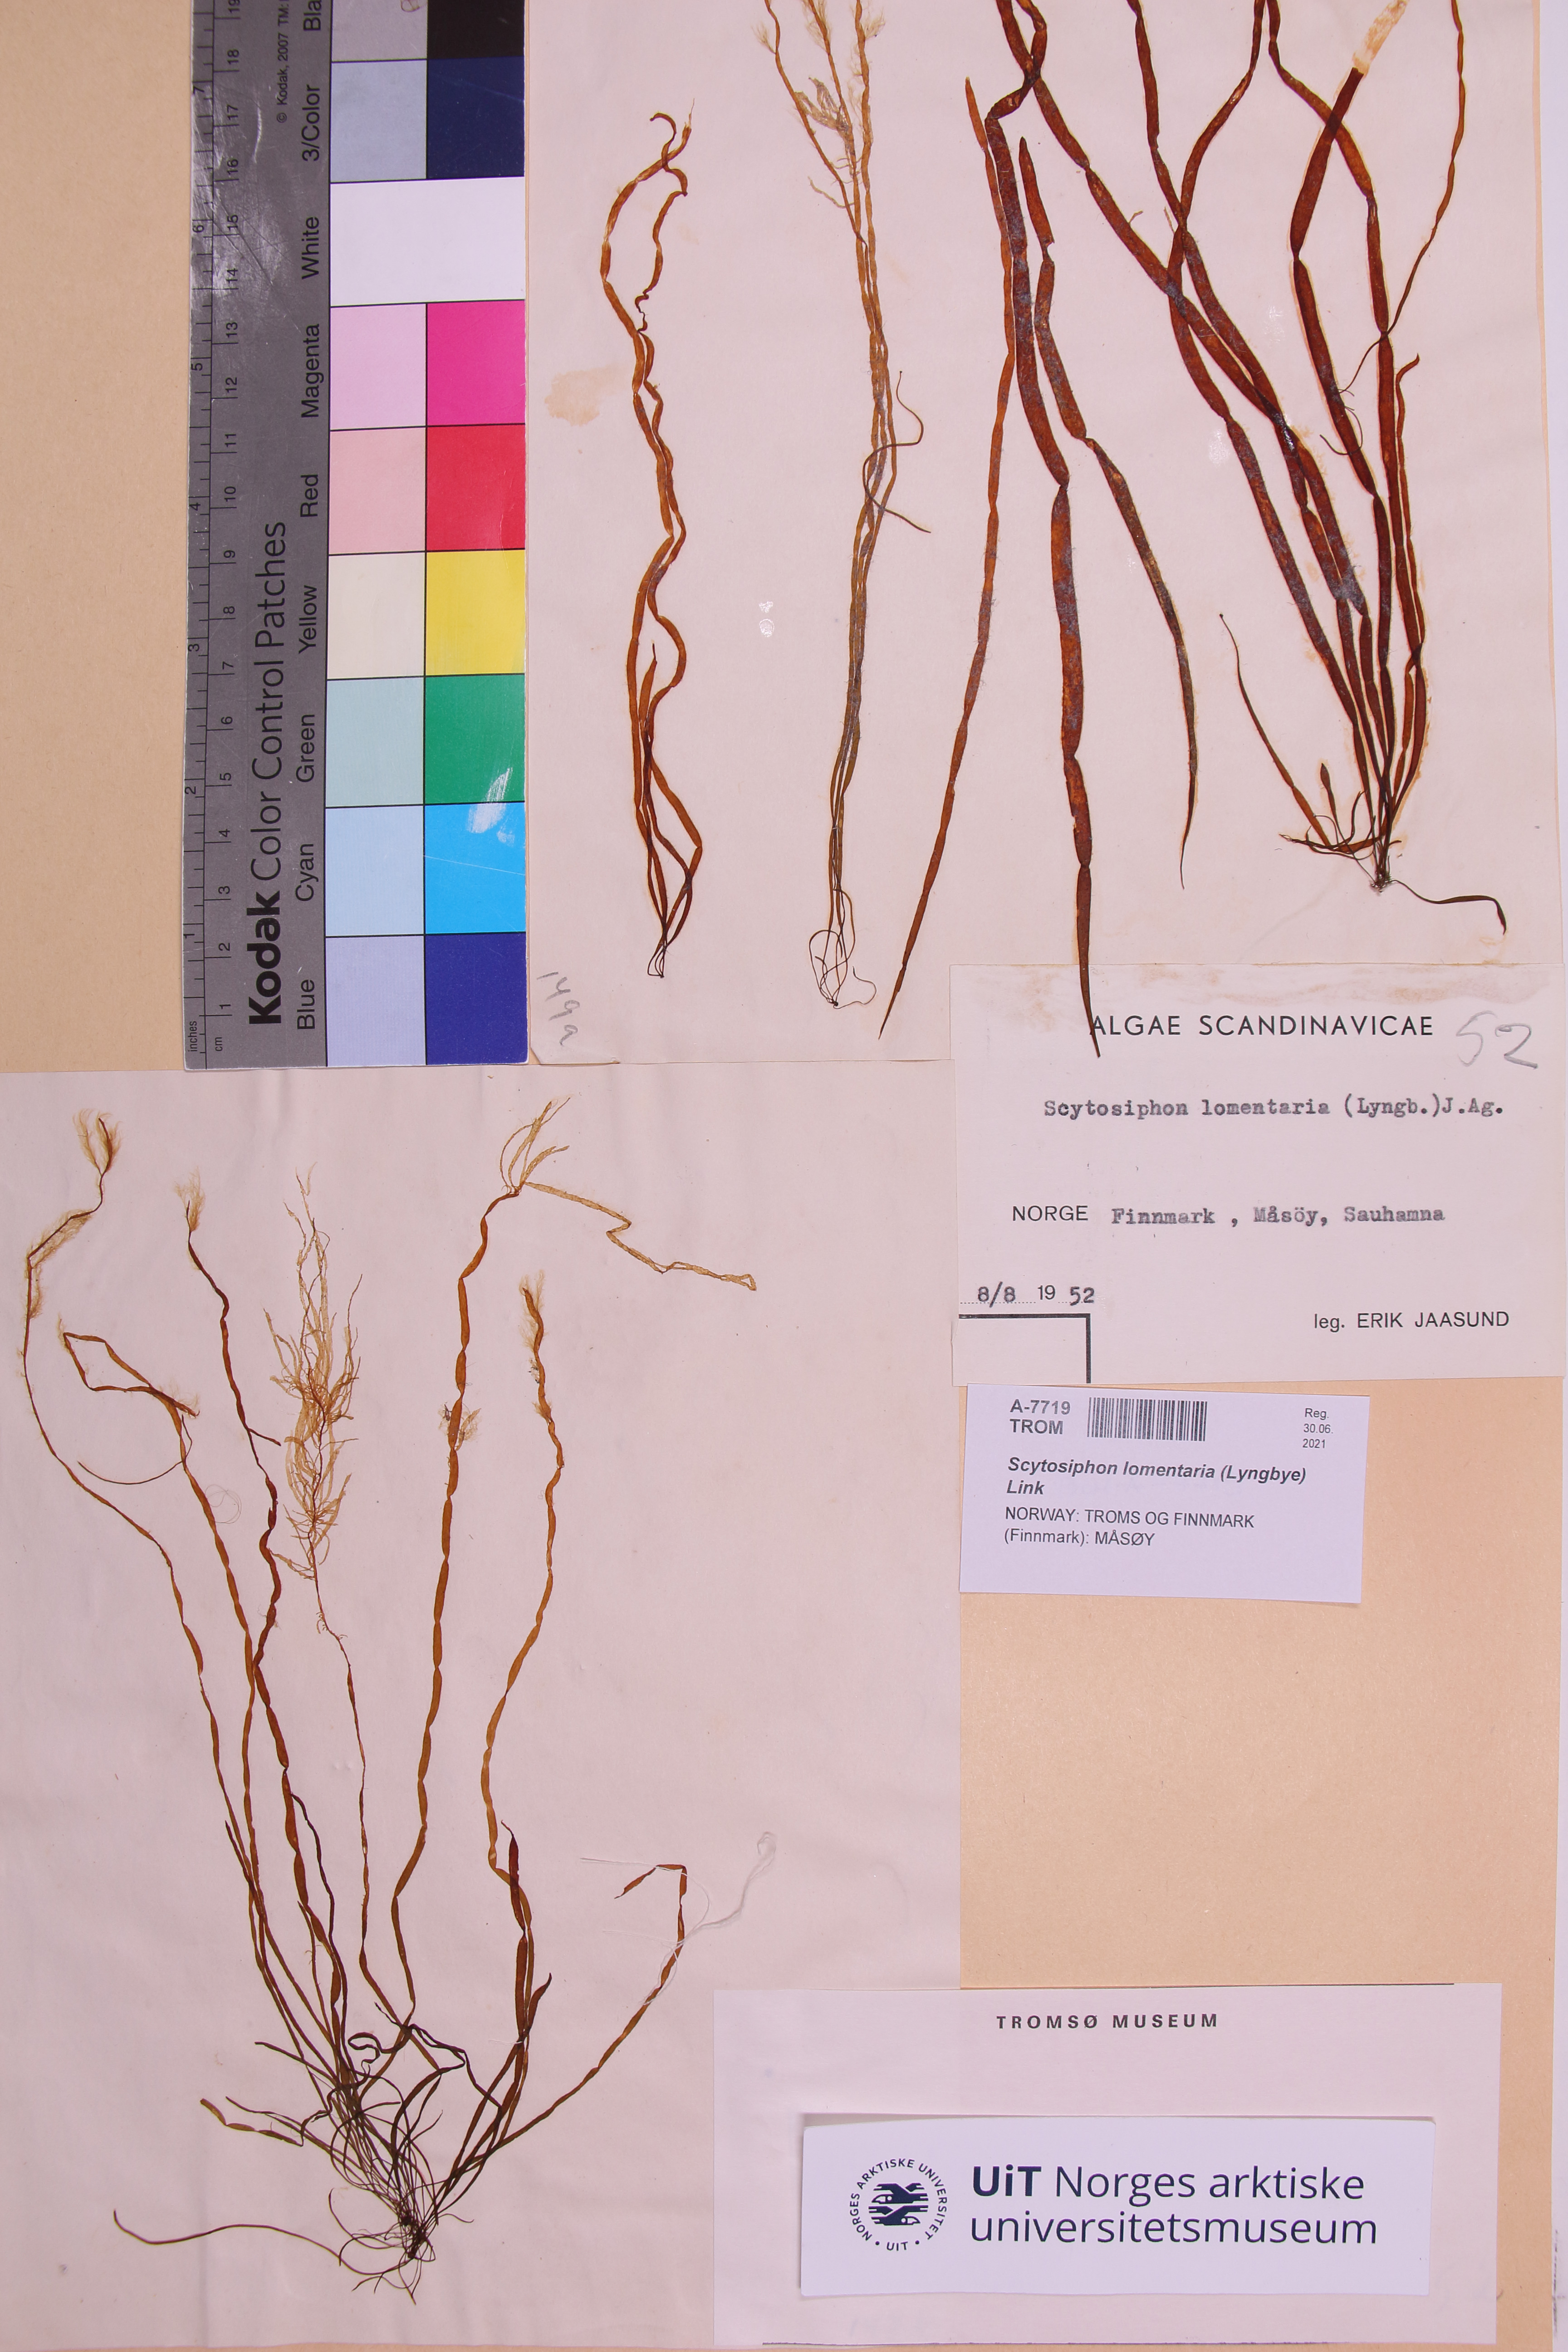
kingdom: Chromista
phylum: Ochrophyta
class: Phaeophyceae
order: Scytosiphonales
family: Scytosiphonaceae
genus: Scytosiphon
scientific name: Scytosiphon lomentaria
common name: Beanweed
